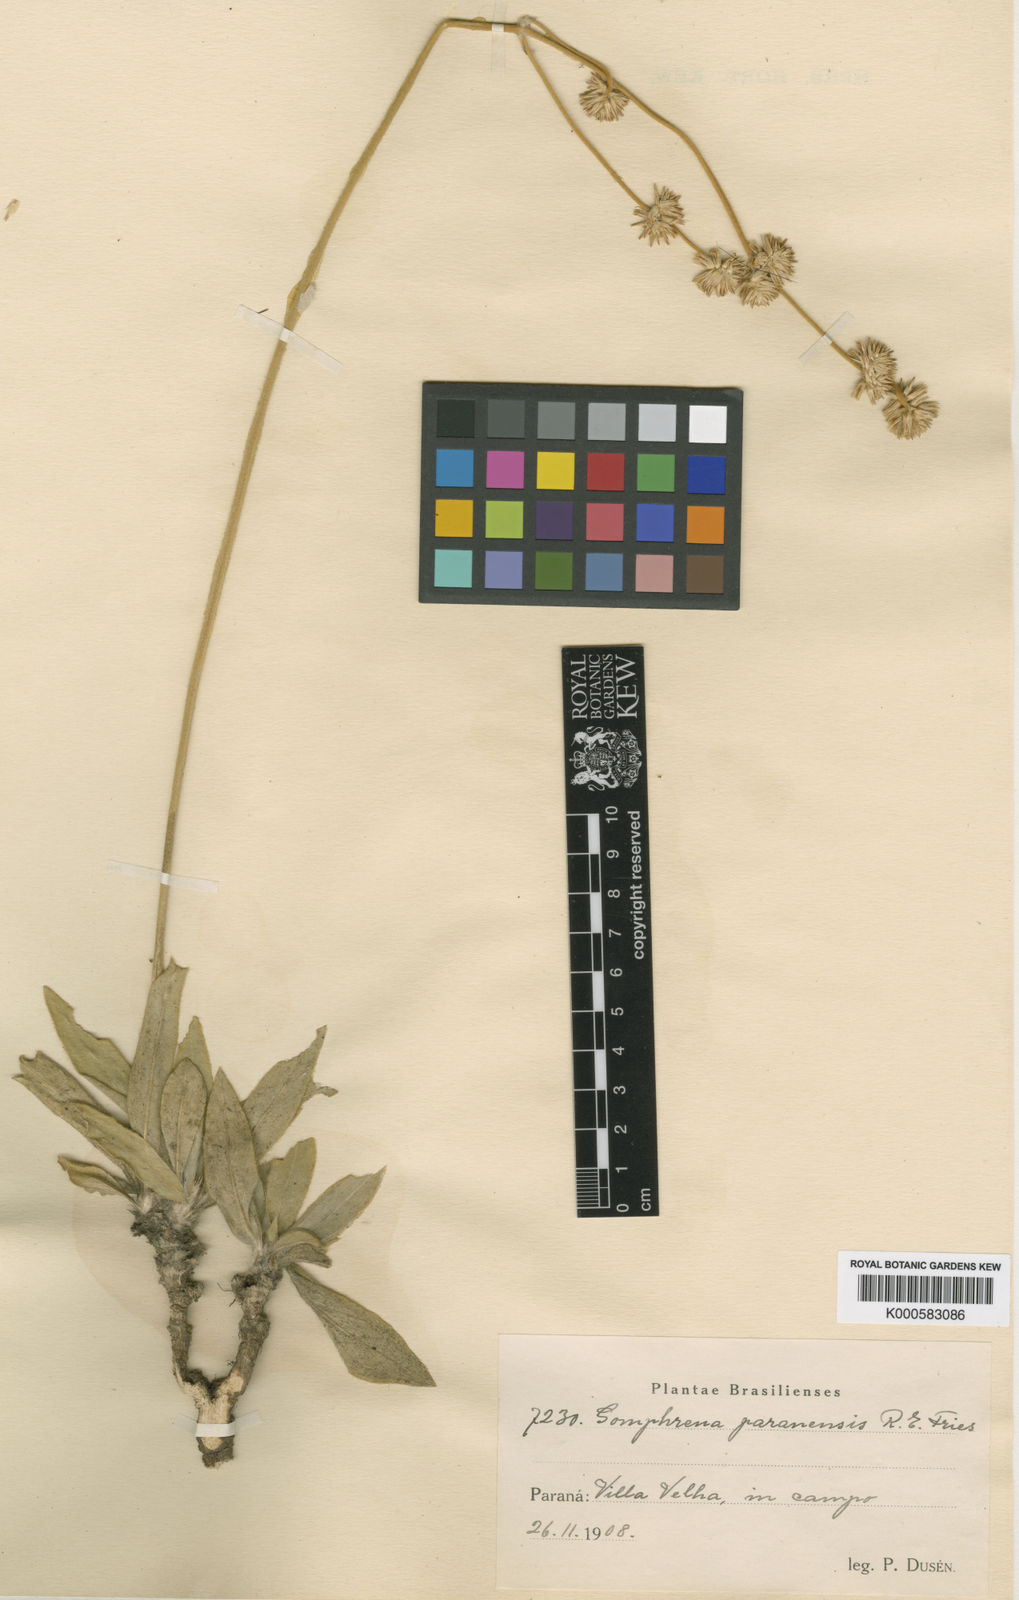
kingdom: Plantae
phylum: Tracheophyta
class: Magnoliopsida
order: Caryophyllales
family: Amaranthaceae
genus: Gomphrena
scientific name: Gomphrena paranensis
